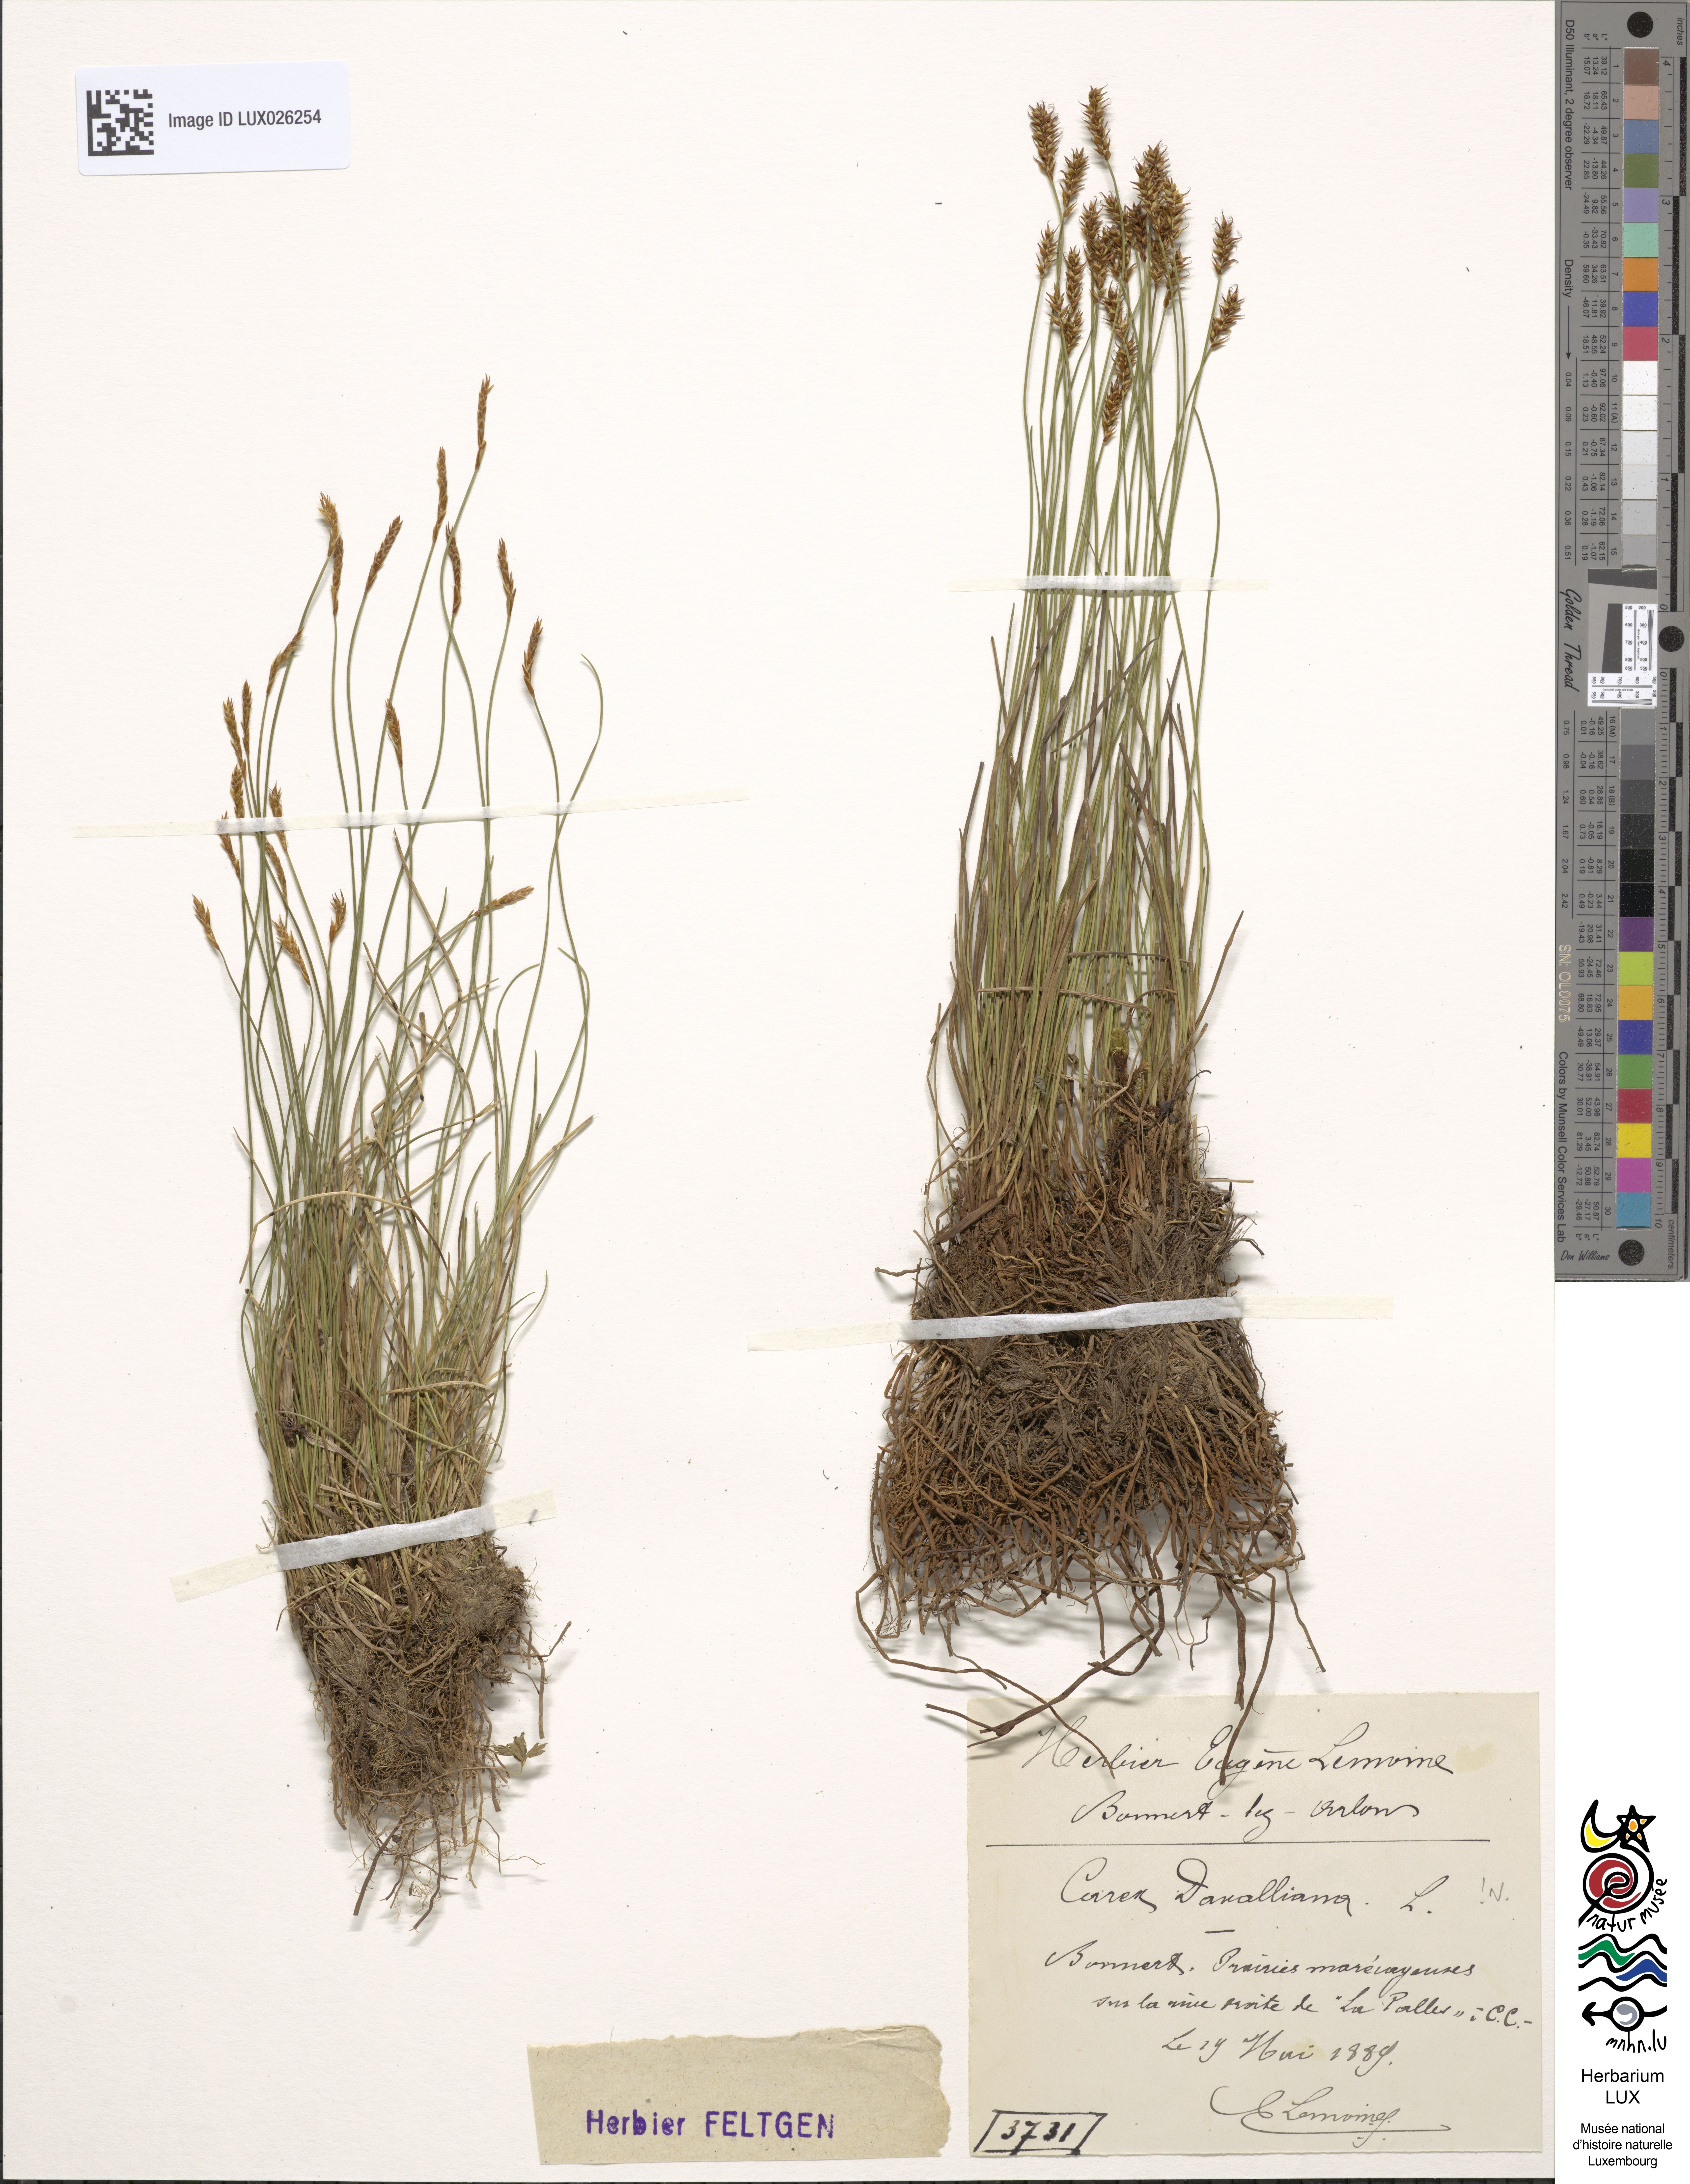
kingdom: Plantae
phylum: Tracheophyta
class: Liliopsida
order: Poales
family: Cyperaceae
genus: Carex
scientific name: Carex davalliana
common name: Davall's sedge
